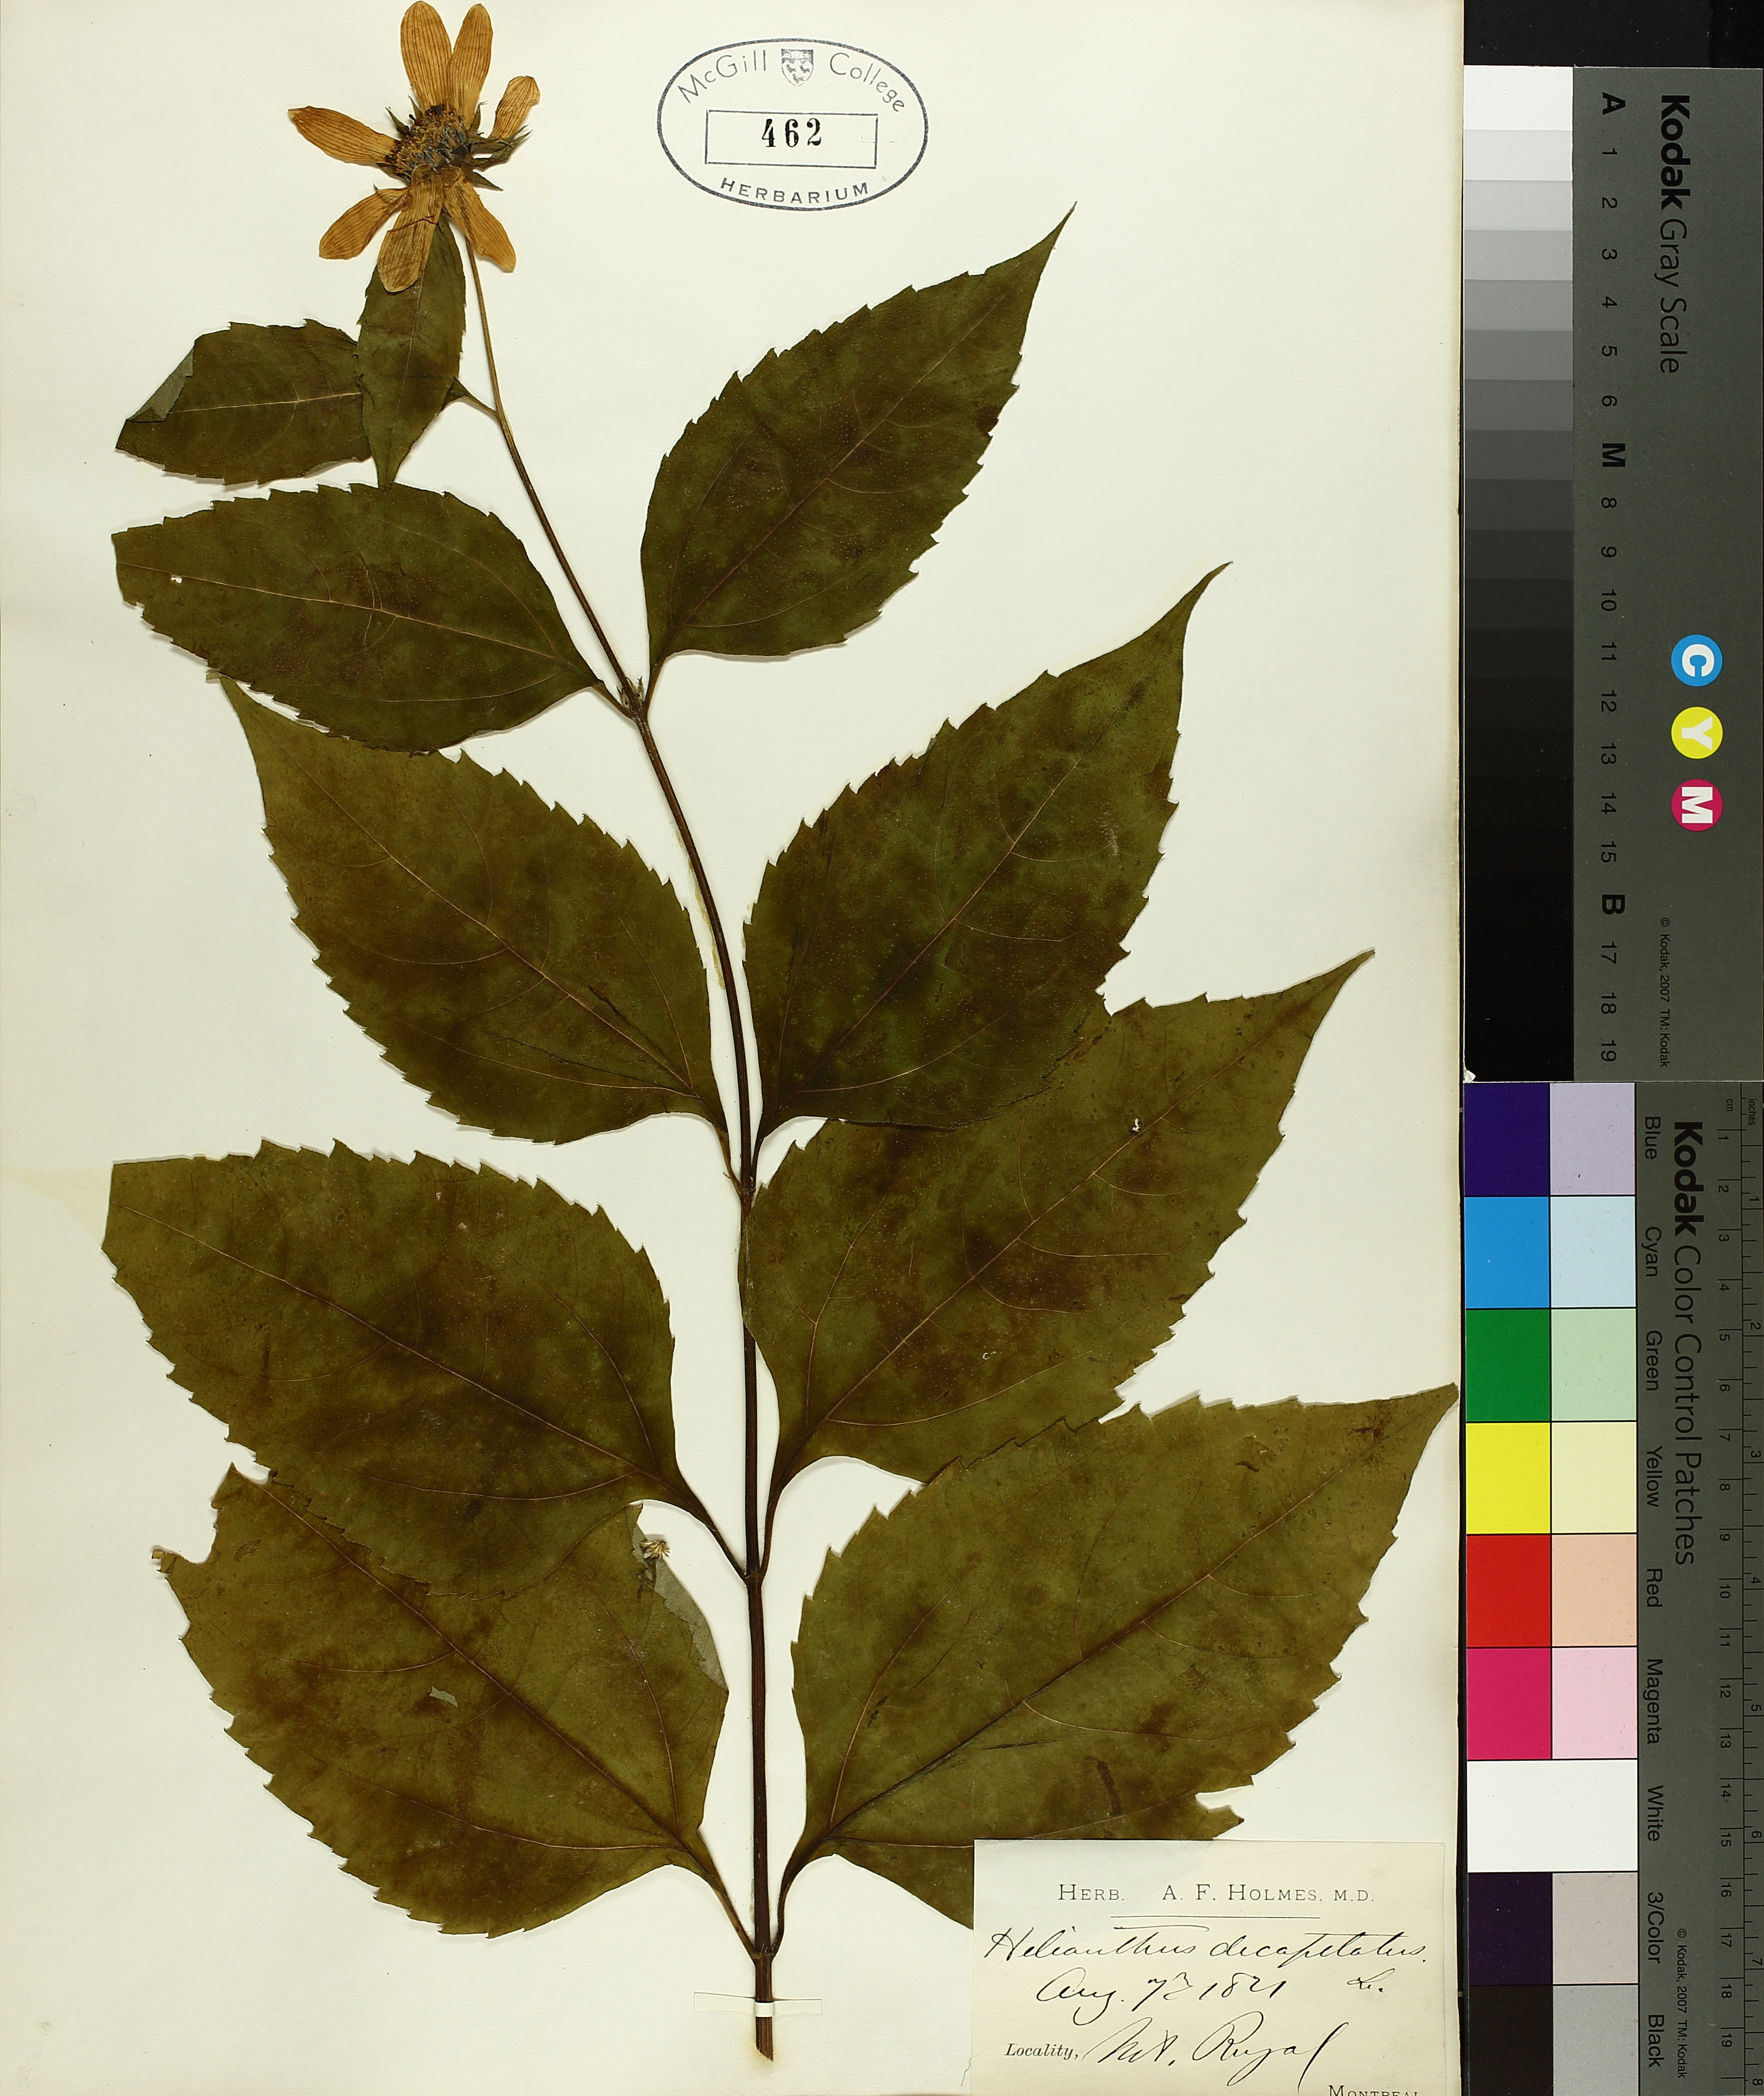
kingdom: Plantae
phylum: Tracheophyta
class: Magnoliopsida
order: Asterales
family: Asteraceae
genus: Helianthus
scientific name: Helianthus decapetalus
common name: Thin-leaved sunflower
